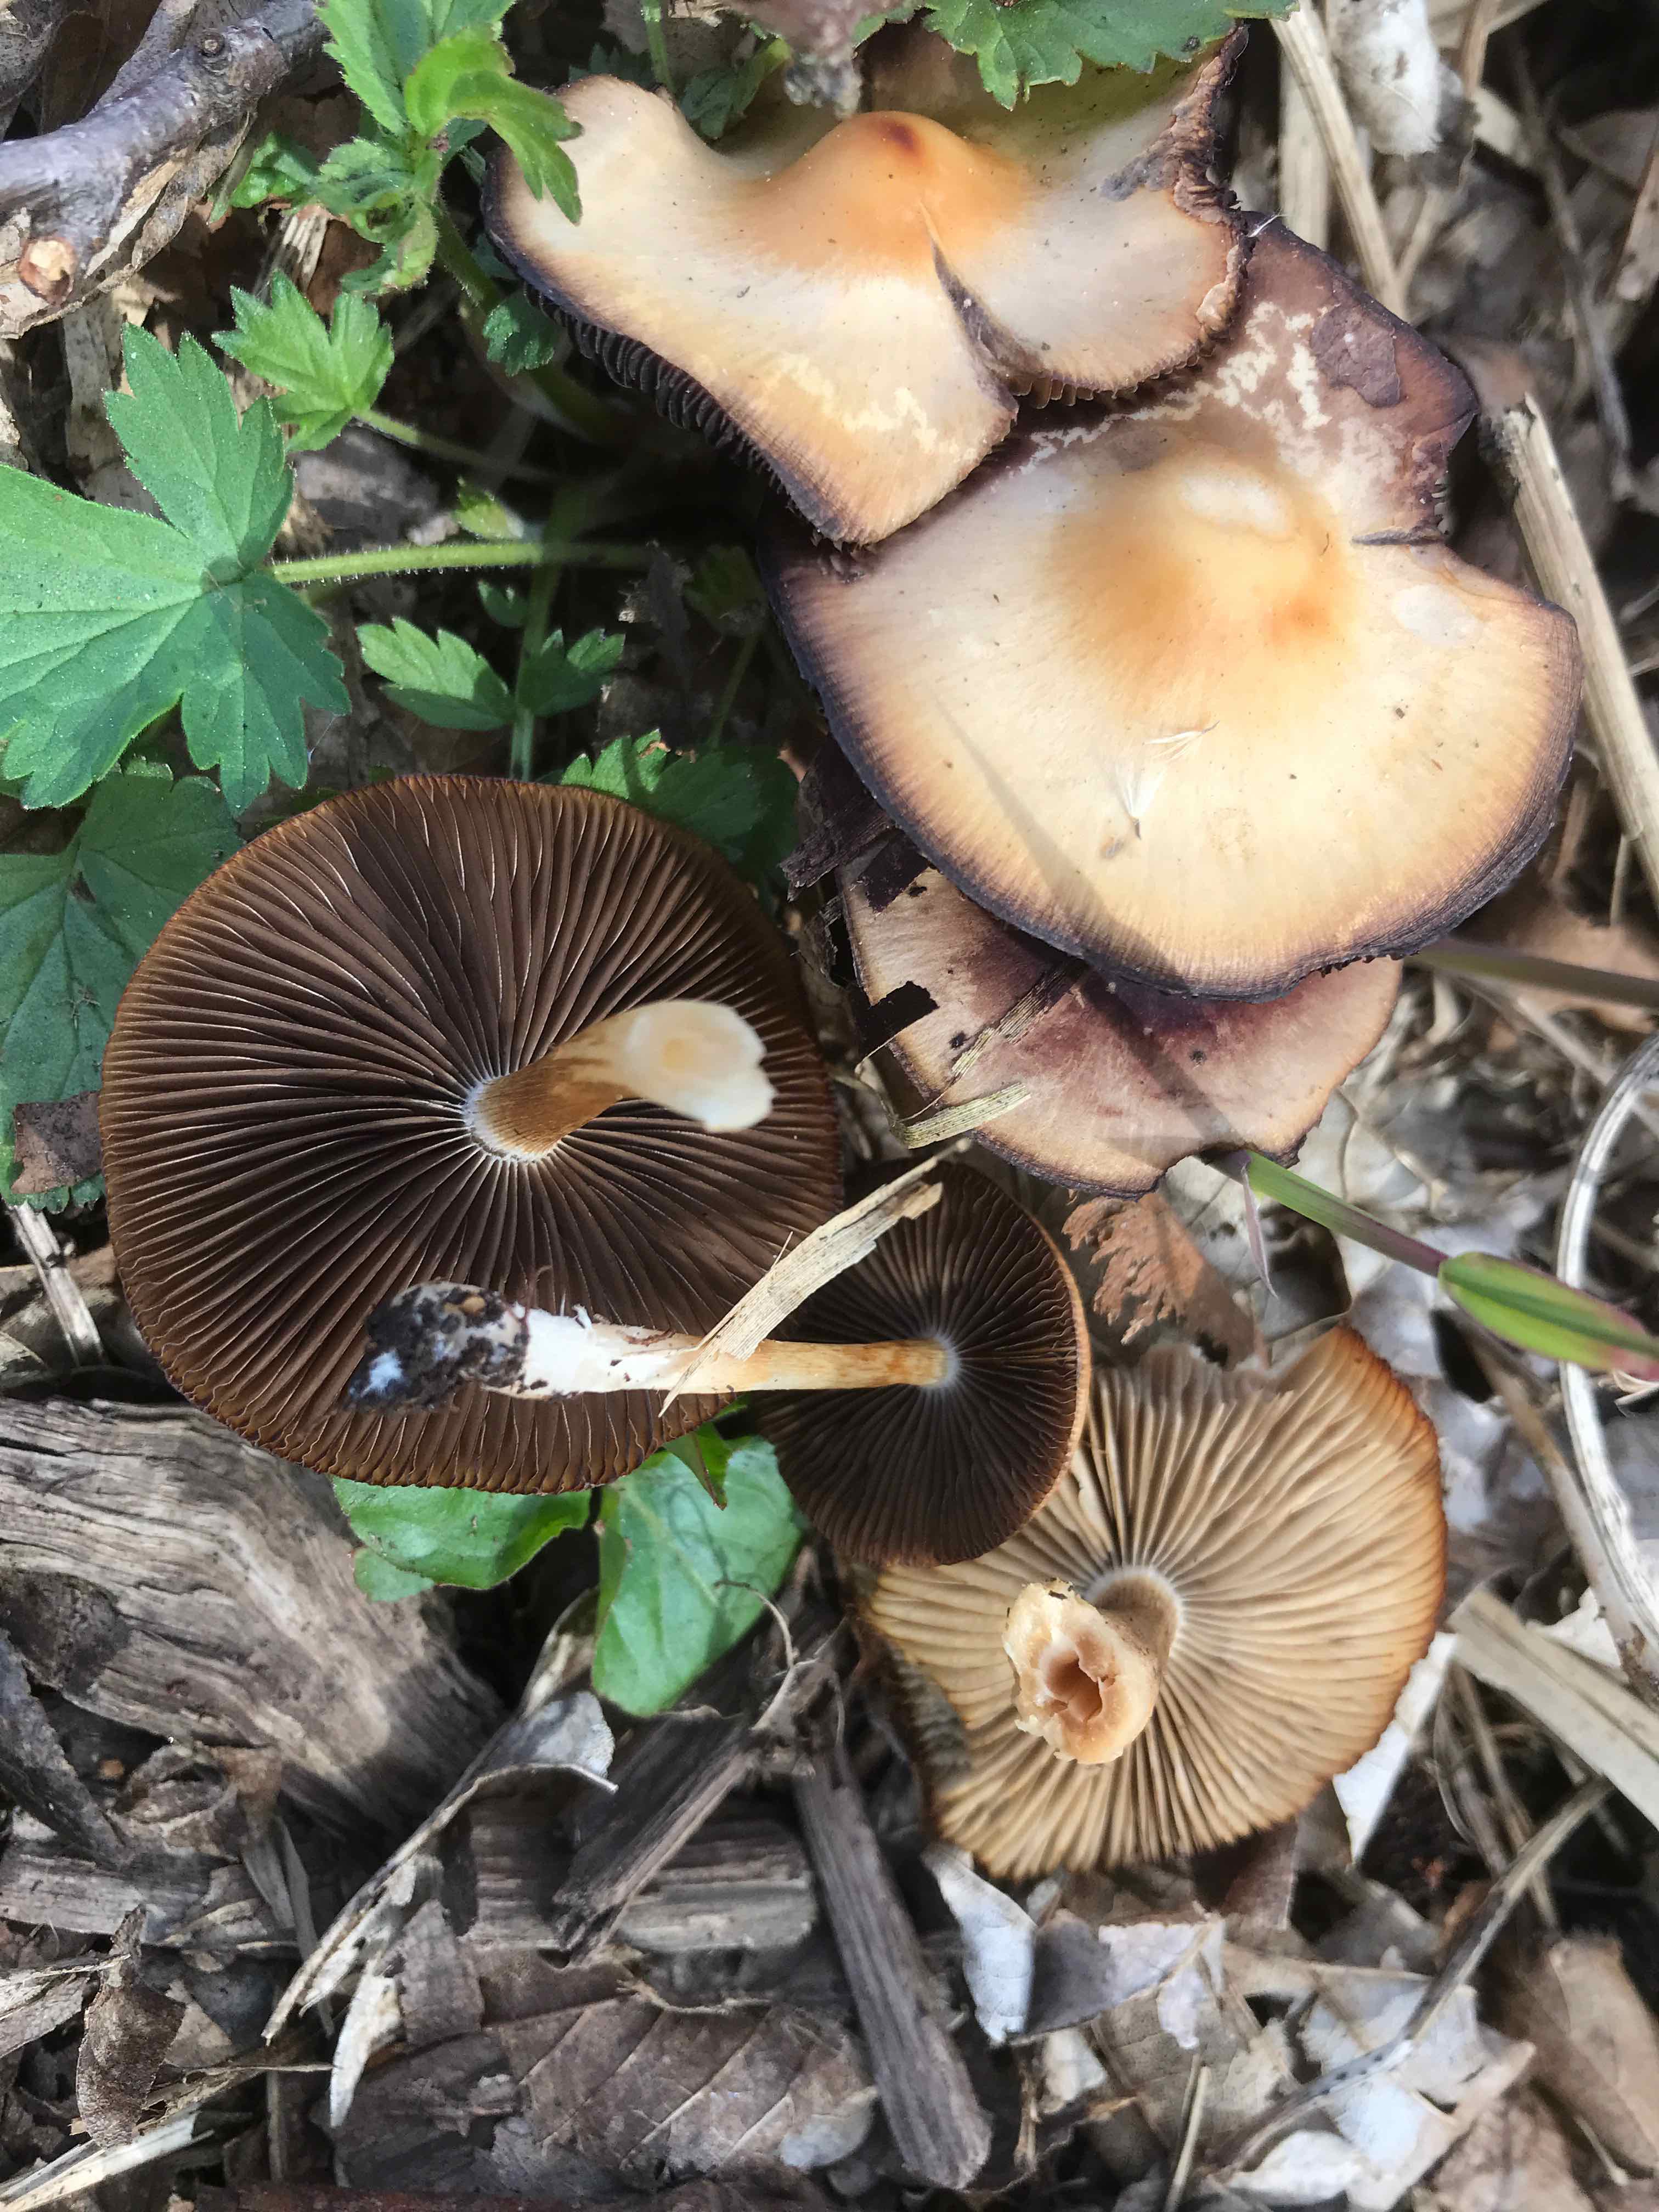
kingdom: Fungi
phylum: Basidiomycota
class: Agaricomycetes
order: Agaricales
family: Psathyrellaceae
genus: Psathyrella
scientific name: Psathyrella spadiceogrisea
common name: gråbrun mørkhat
